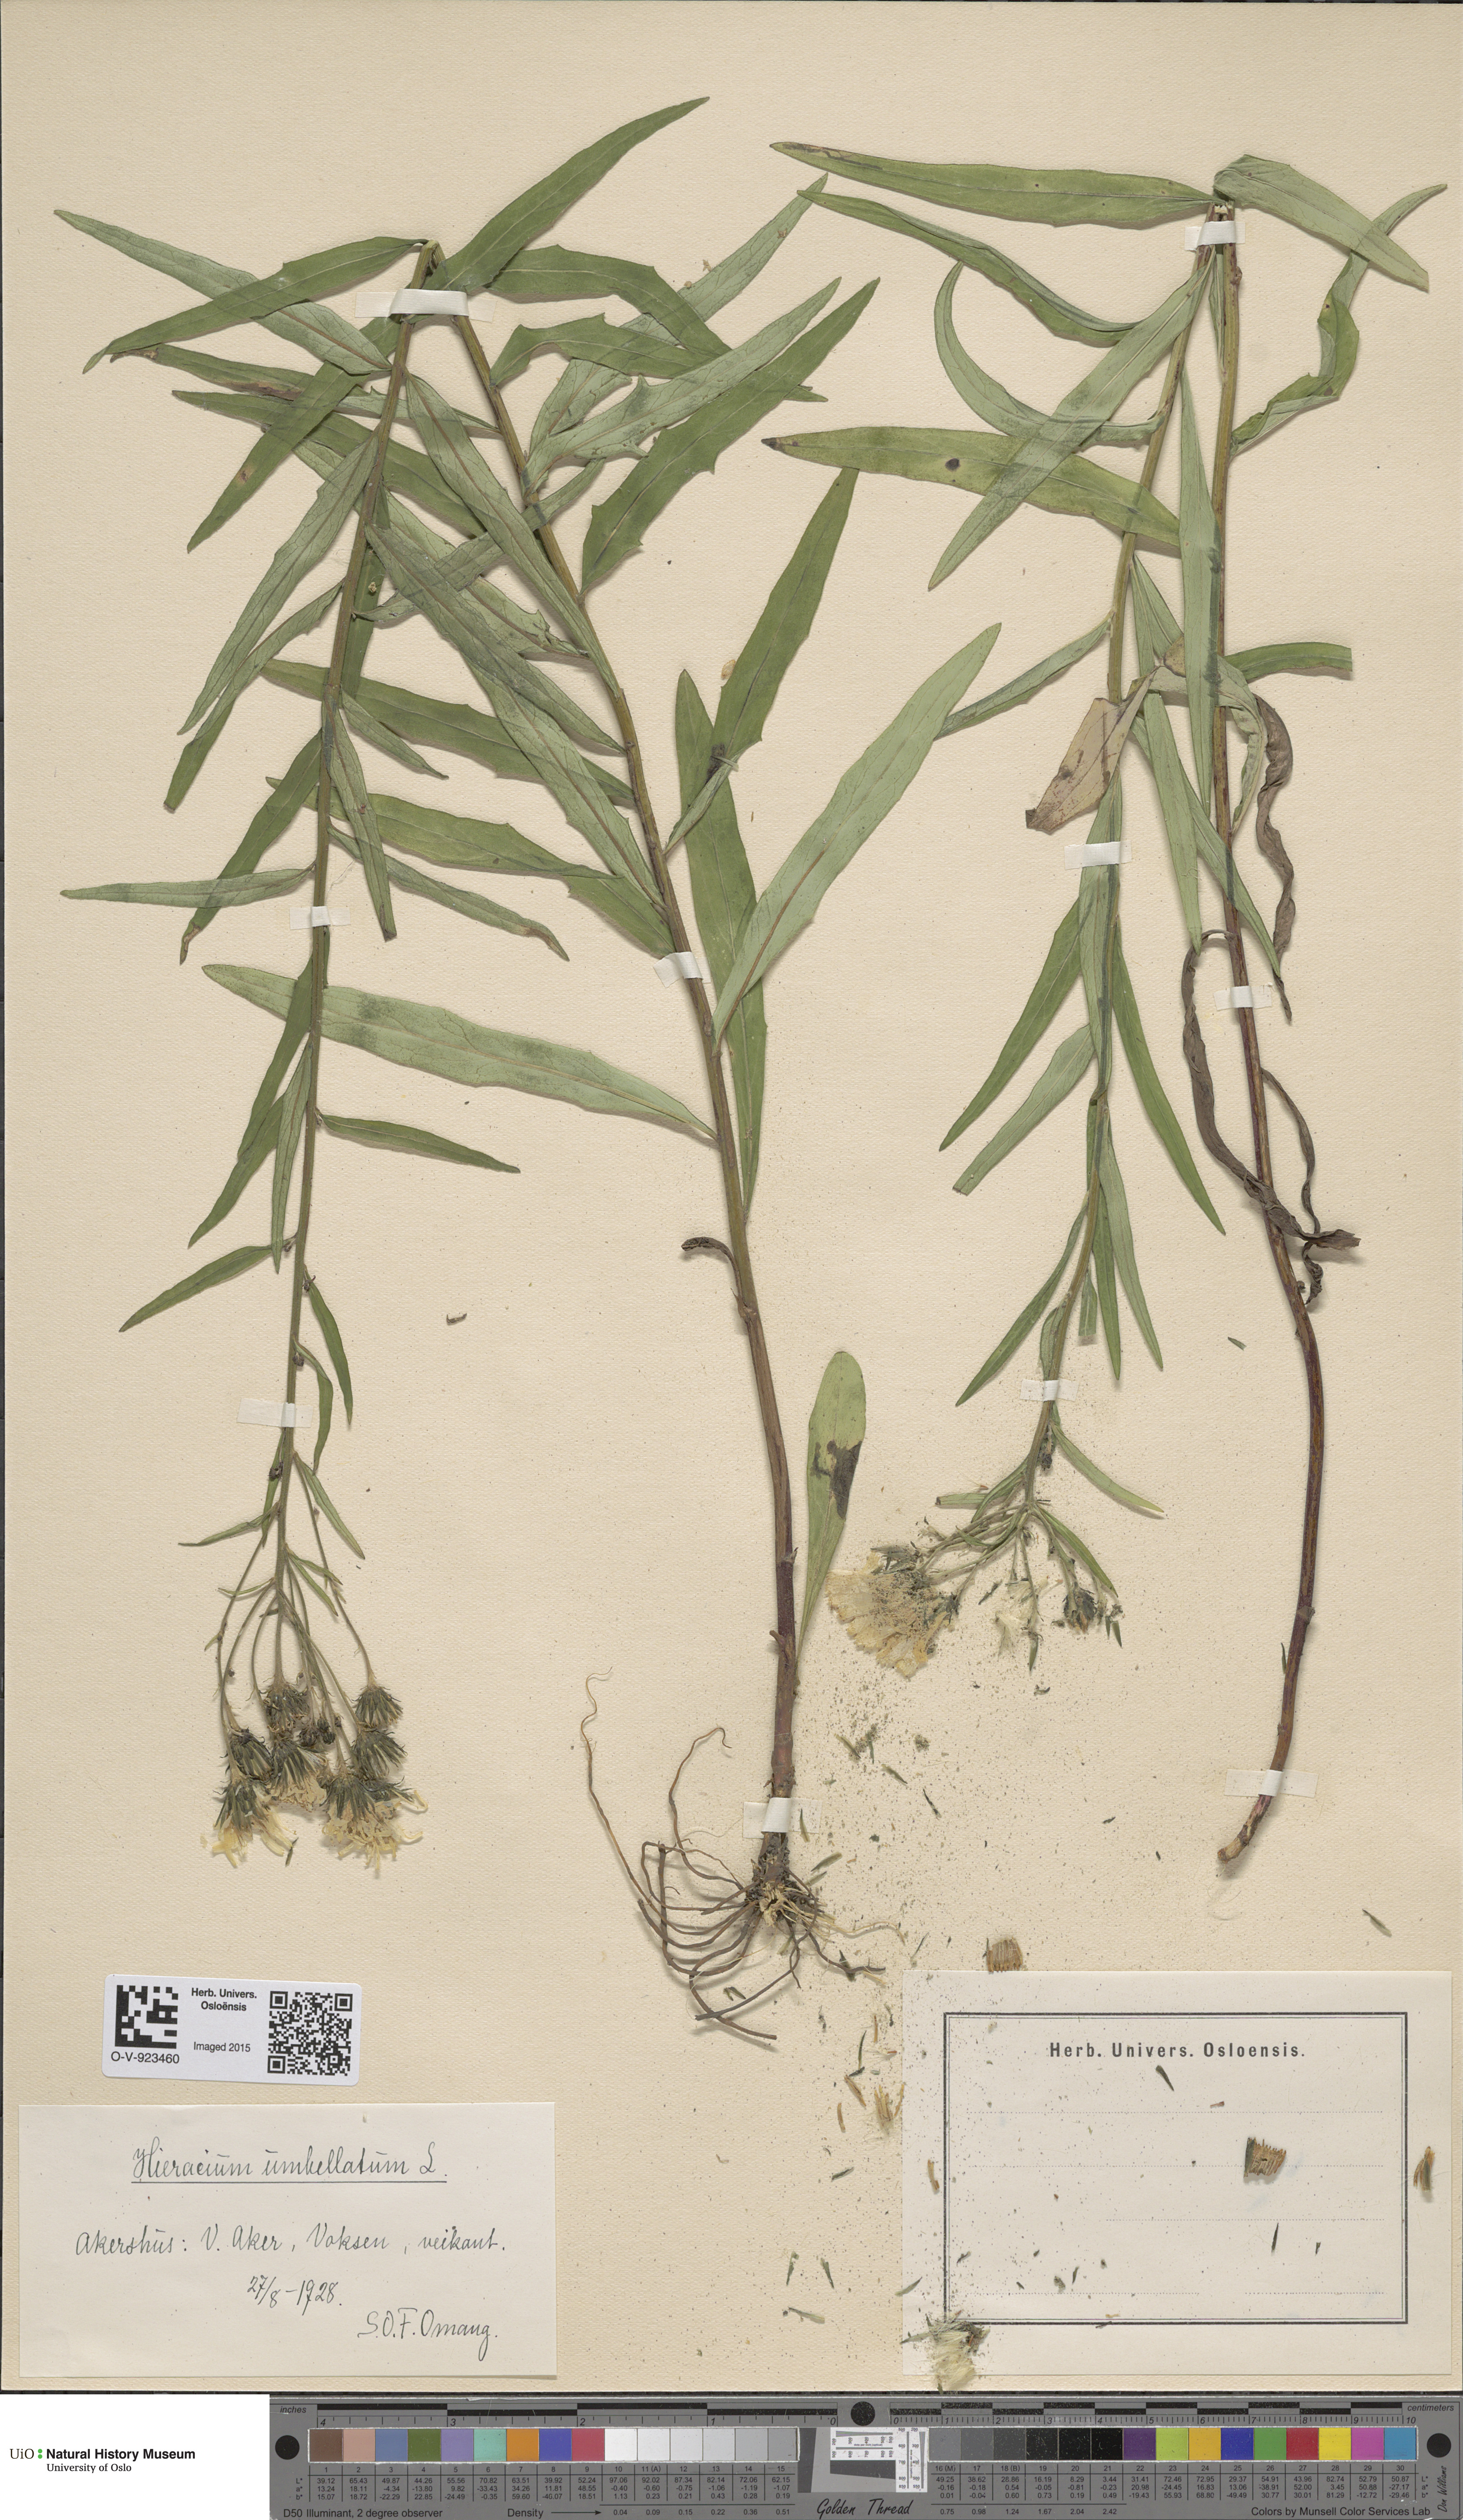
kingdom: Plantae
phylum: Tracheophyta
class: Magnoliopsida
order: Asterales
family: Asteraceae
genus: Hieracium
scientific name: Hieracium umbellatum
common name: Northern hawkweed
